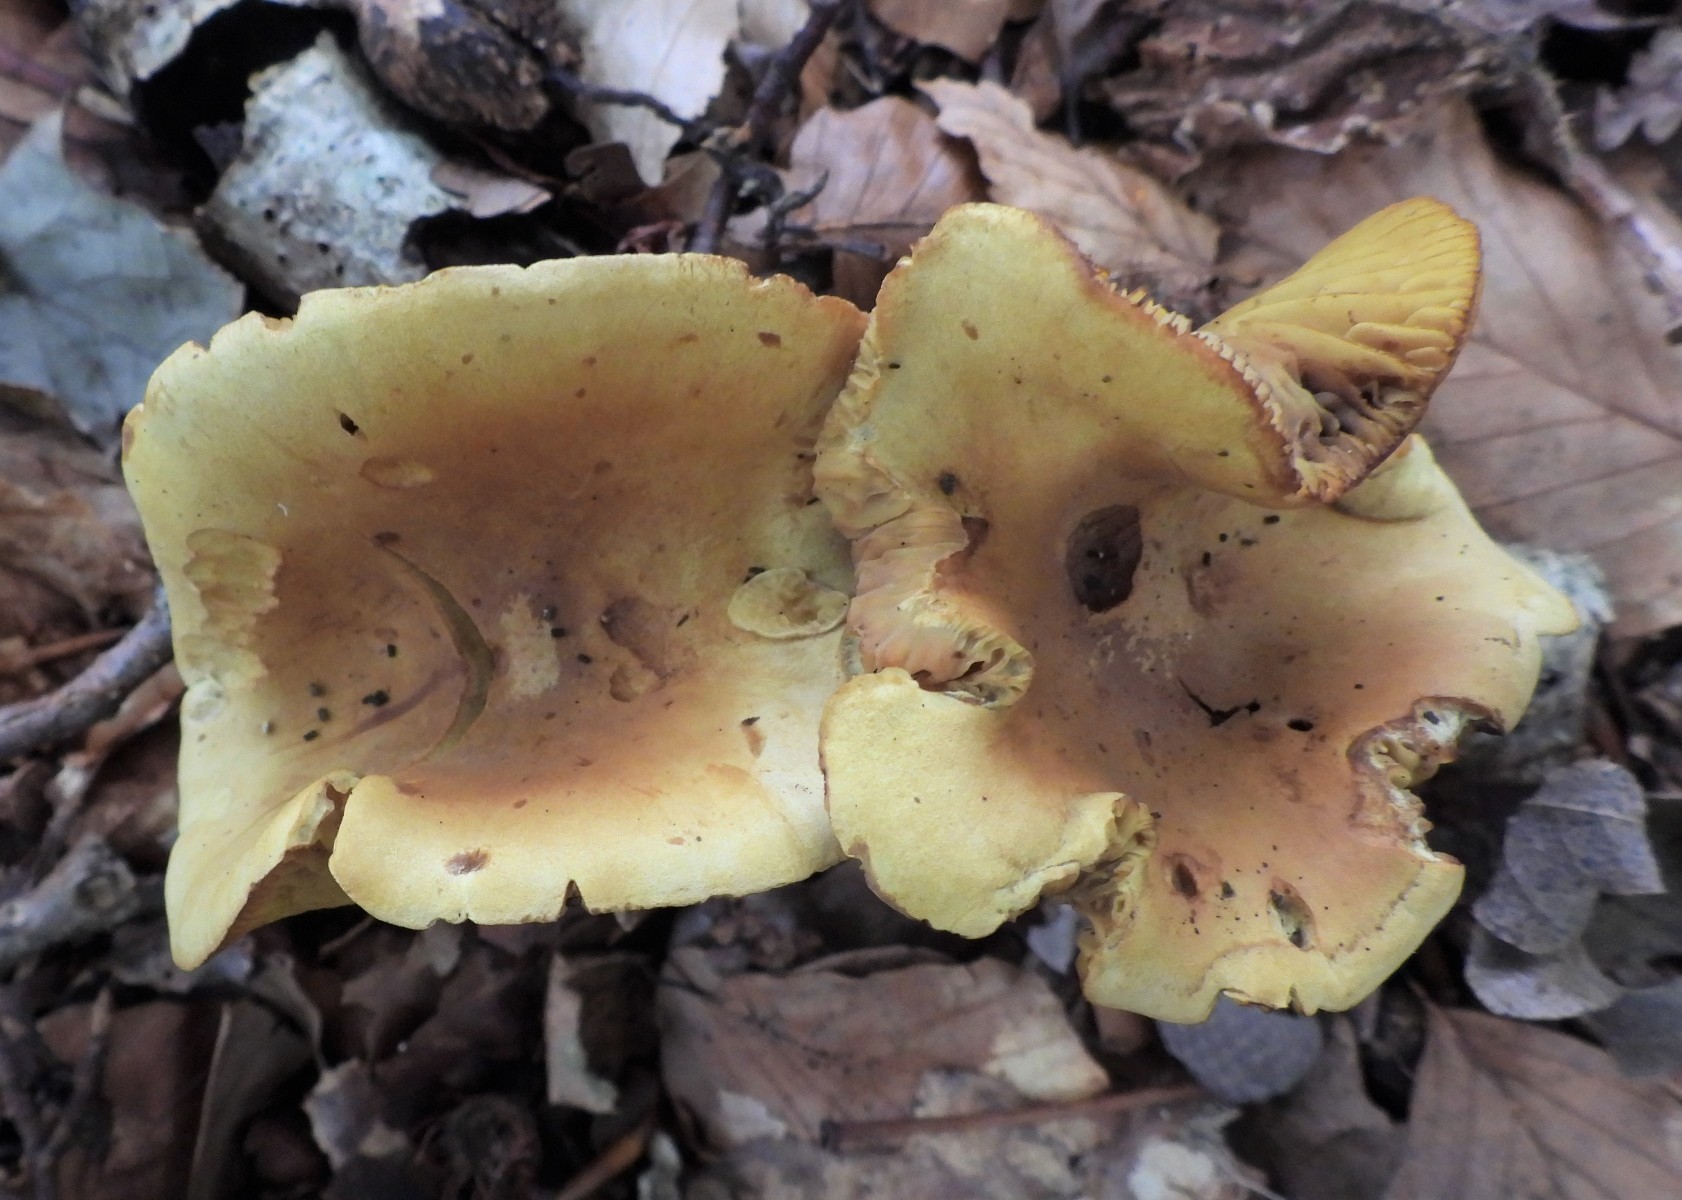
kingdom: Fungi
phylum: Basidiomycota
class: Agaricomycetes
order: Agaricales
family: Tricholomataceae
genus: Tricholoma
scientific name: Tricholoma sulphureum
